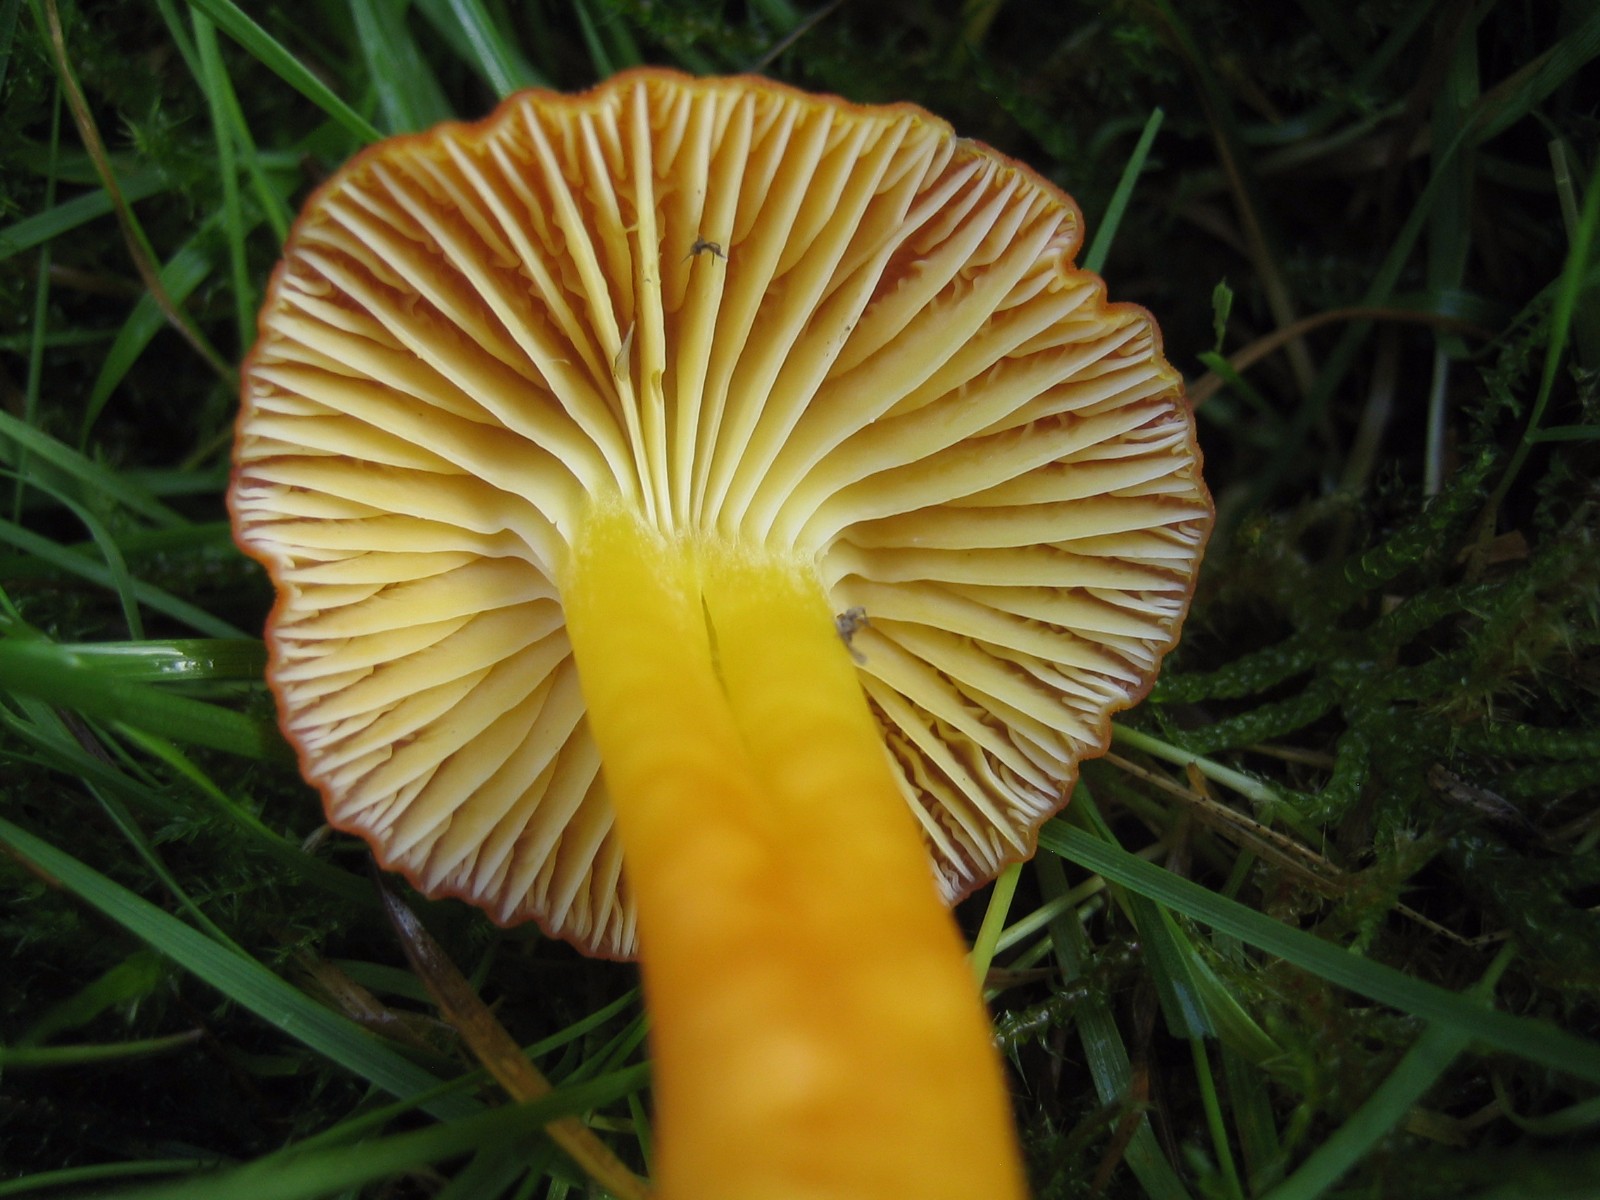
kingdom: Fungi
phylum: Basidiomycota
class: Agaricomycetes
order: Agaricales
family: Hygrophoraceae
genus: Hygrocybe
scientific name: Hygrocybe reidii
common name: honning-vokshat
